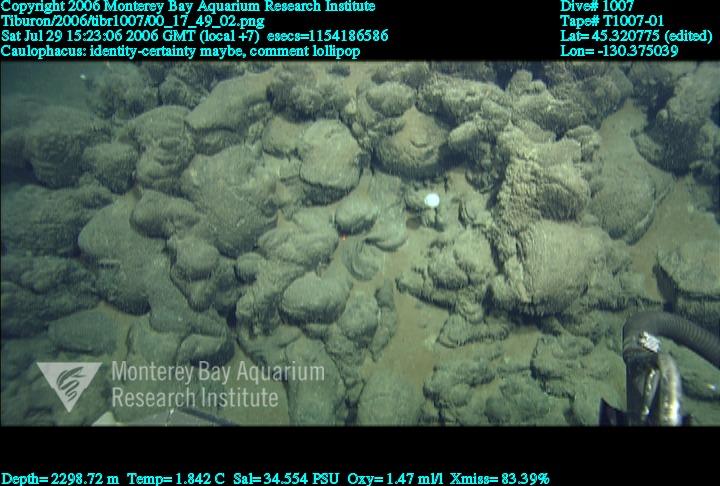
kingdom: Animalia
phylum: Porifera
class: Hexactinellida
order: Lyssacinosida
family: Rossellidae
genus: Caulophacus
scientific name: Caulophacus
